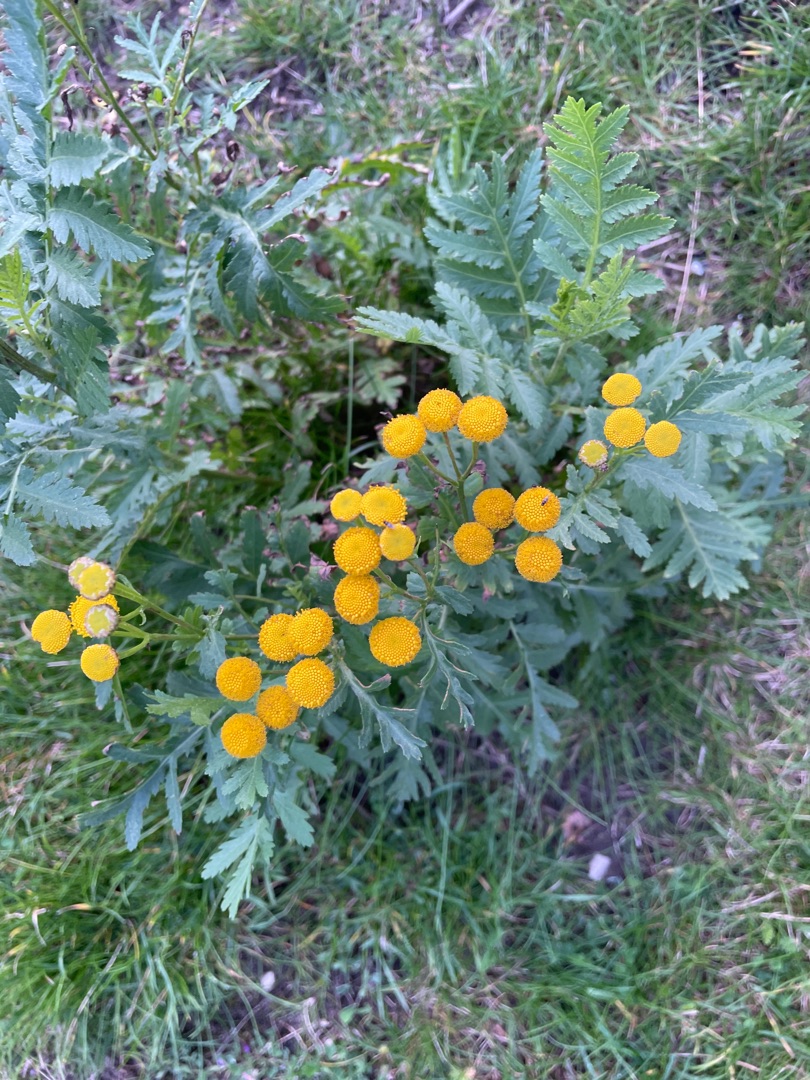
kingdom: Plantae
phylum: Tracheophyta
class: Magnoliopsida
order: Asterales
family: Asteraceae
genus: Tanacetum
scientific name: Tanacetum vulgare
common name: Rejnfan
